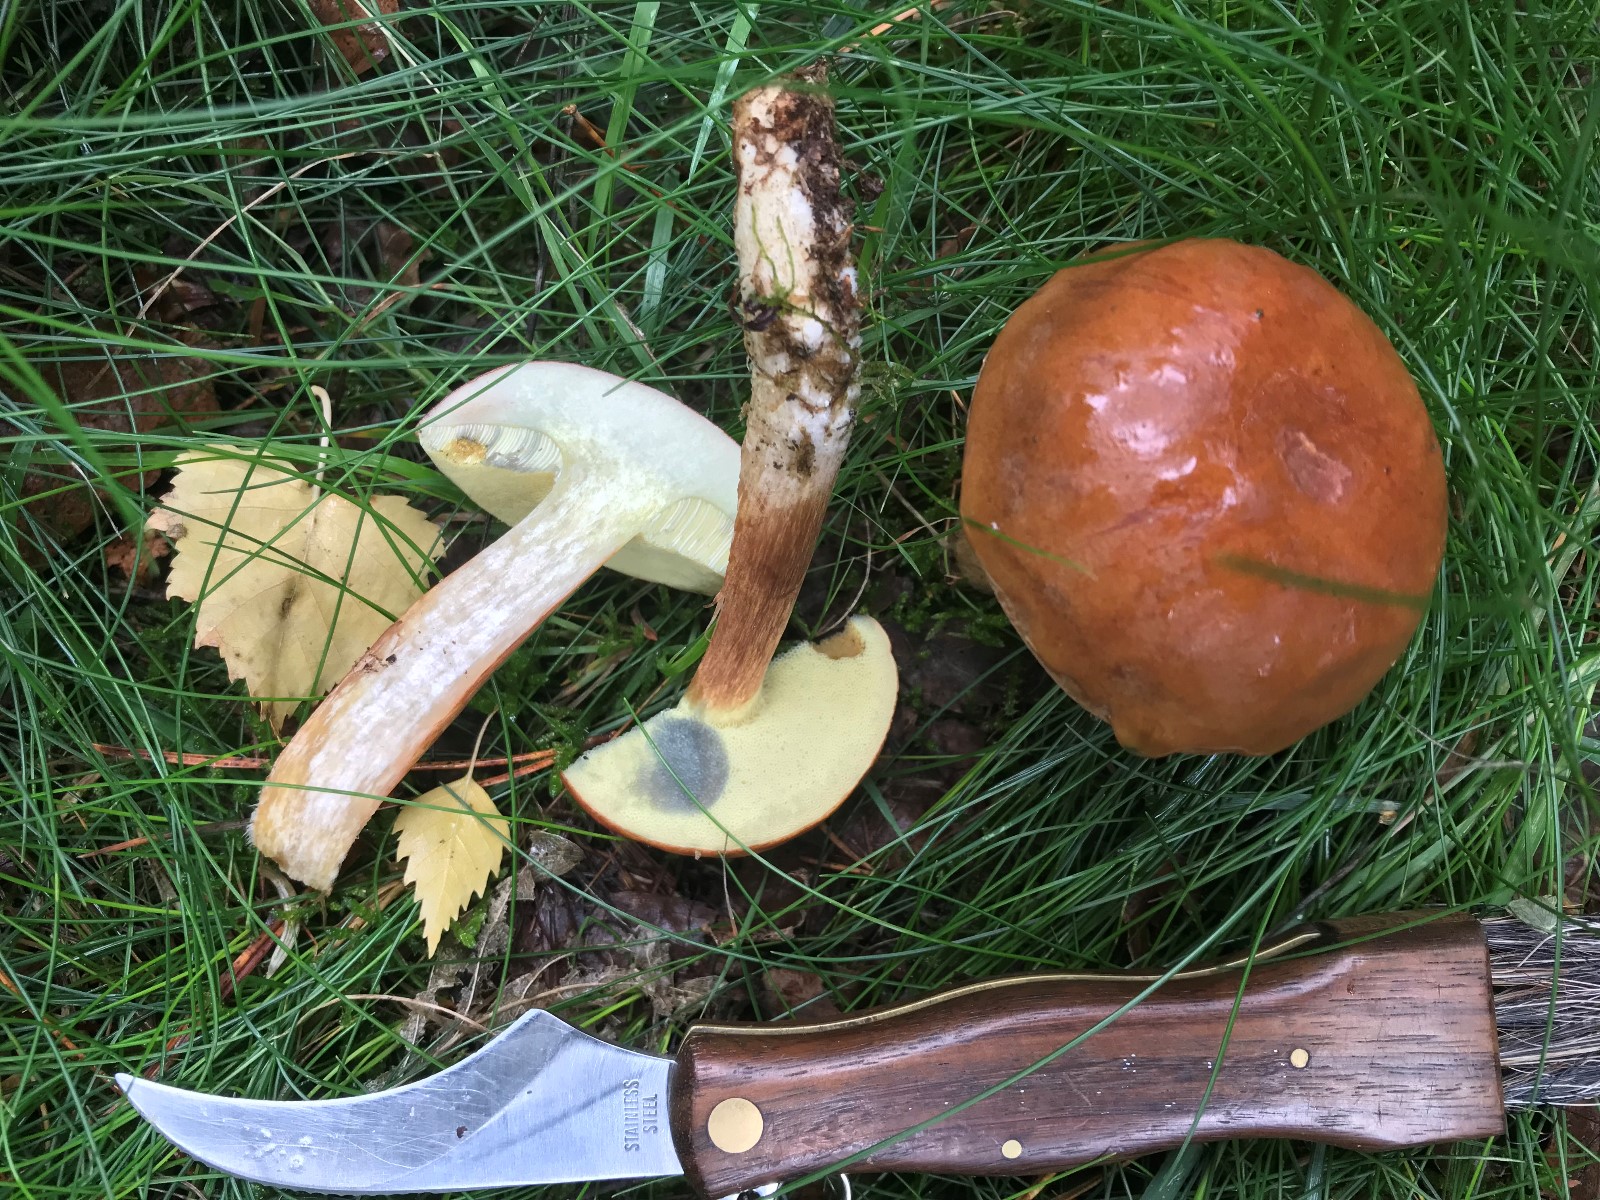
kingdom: Fungi
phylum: Basidiomycota
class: Agaricomycetes
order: Boletales
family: Boletaceae
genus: Imleria
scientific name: Imleria badia
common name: brunstokket rørhat
